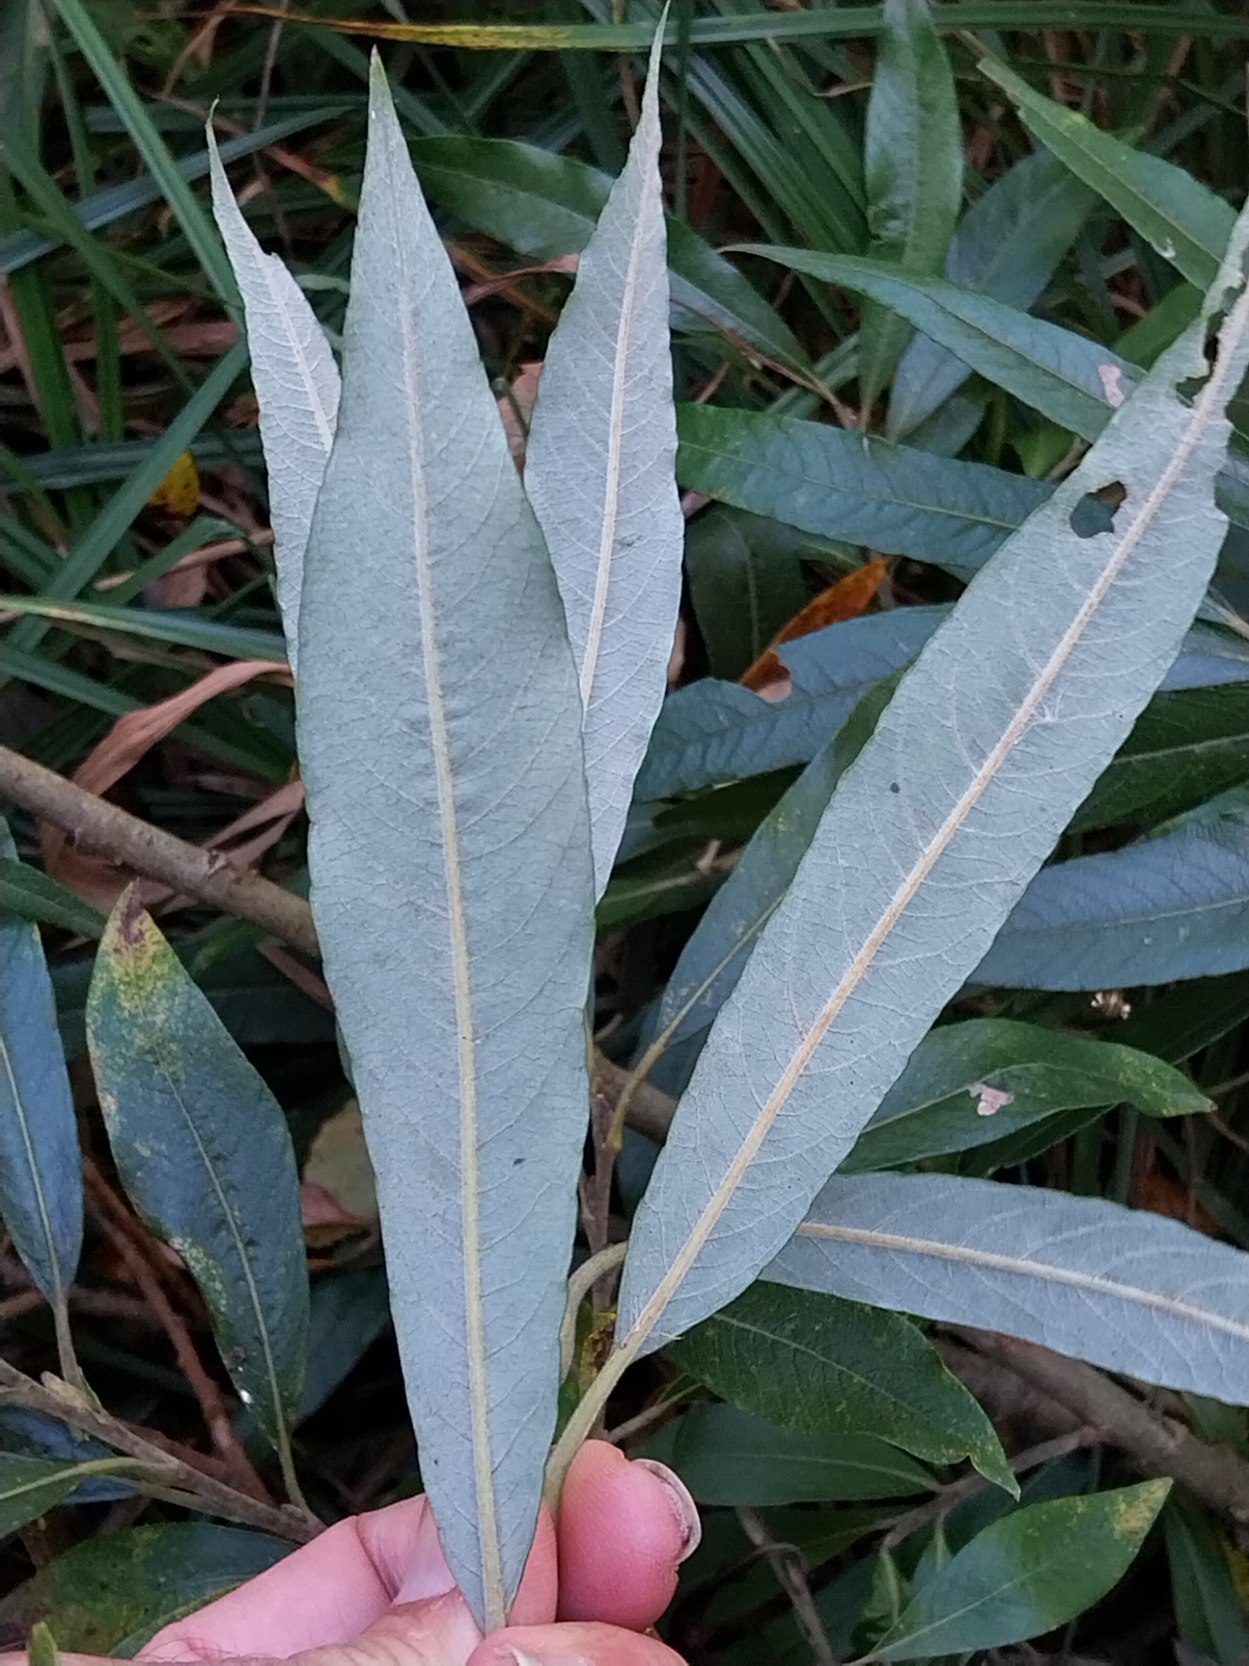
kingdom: Plantae
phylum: Tracheophyta
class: Magnoliopsida
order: Malpighiales
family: Salicaceae
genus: Salix
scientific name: Salix stipularis
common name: Langbladet pil
